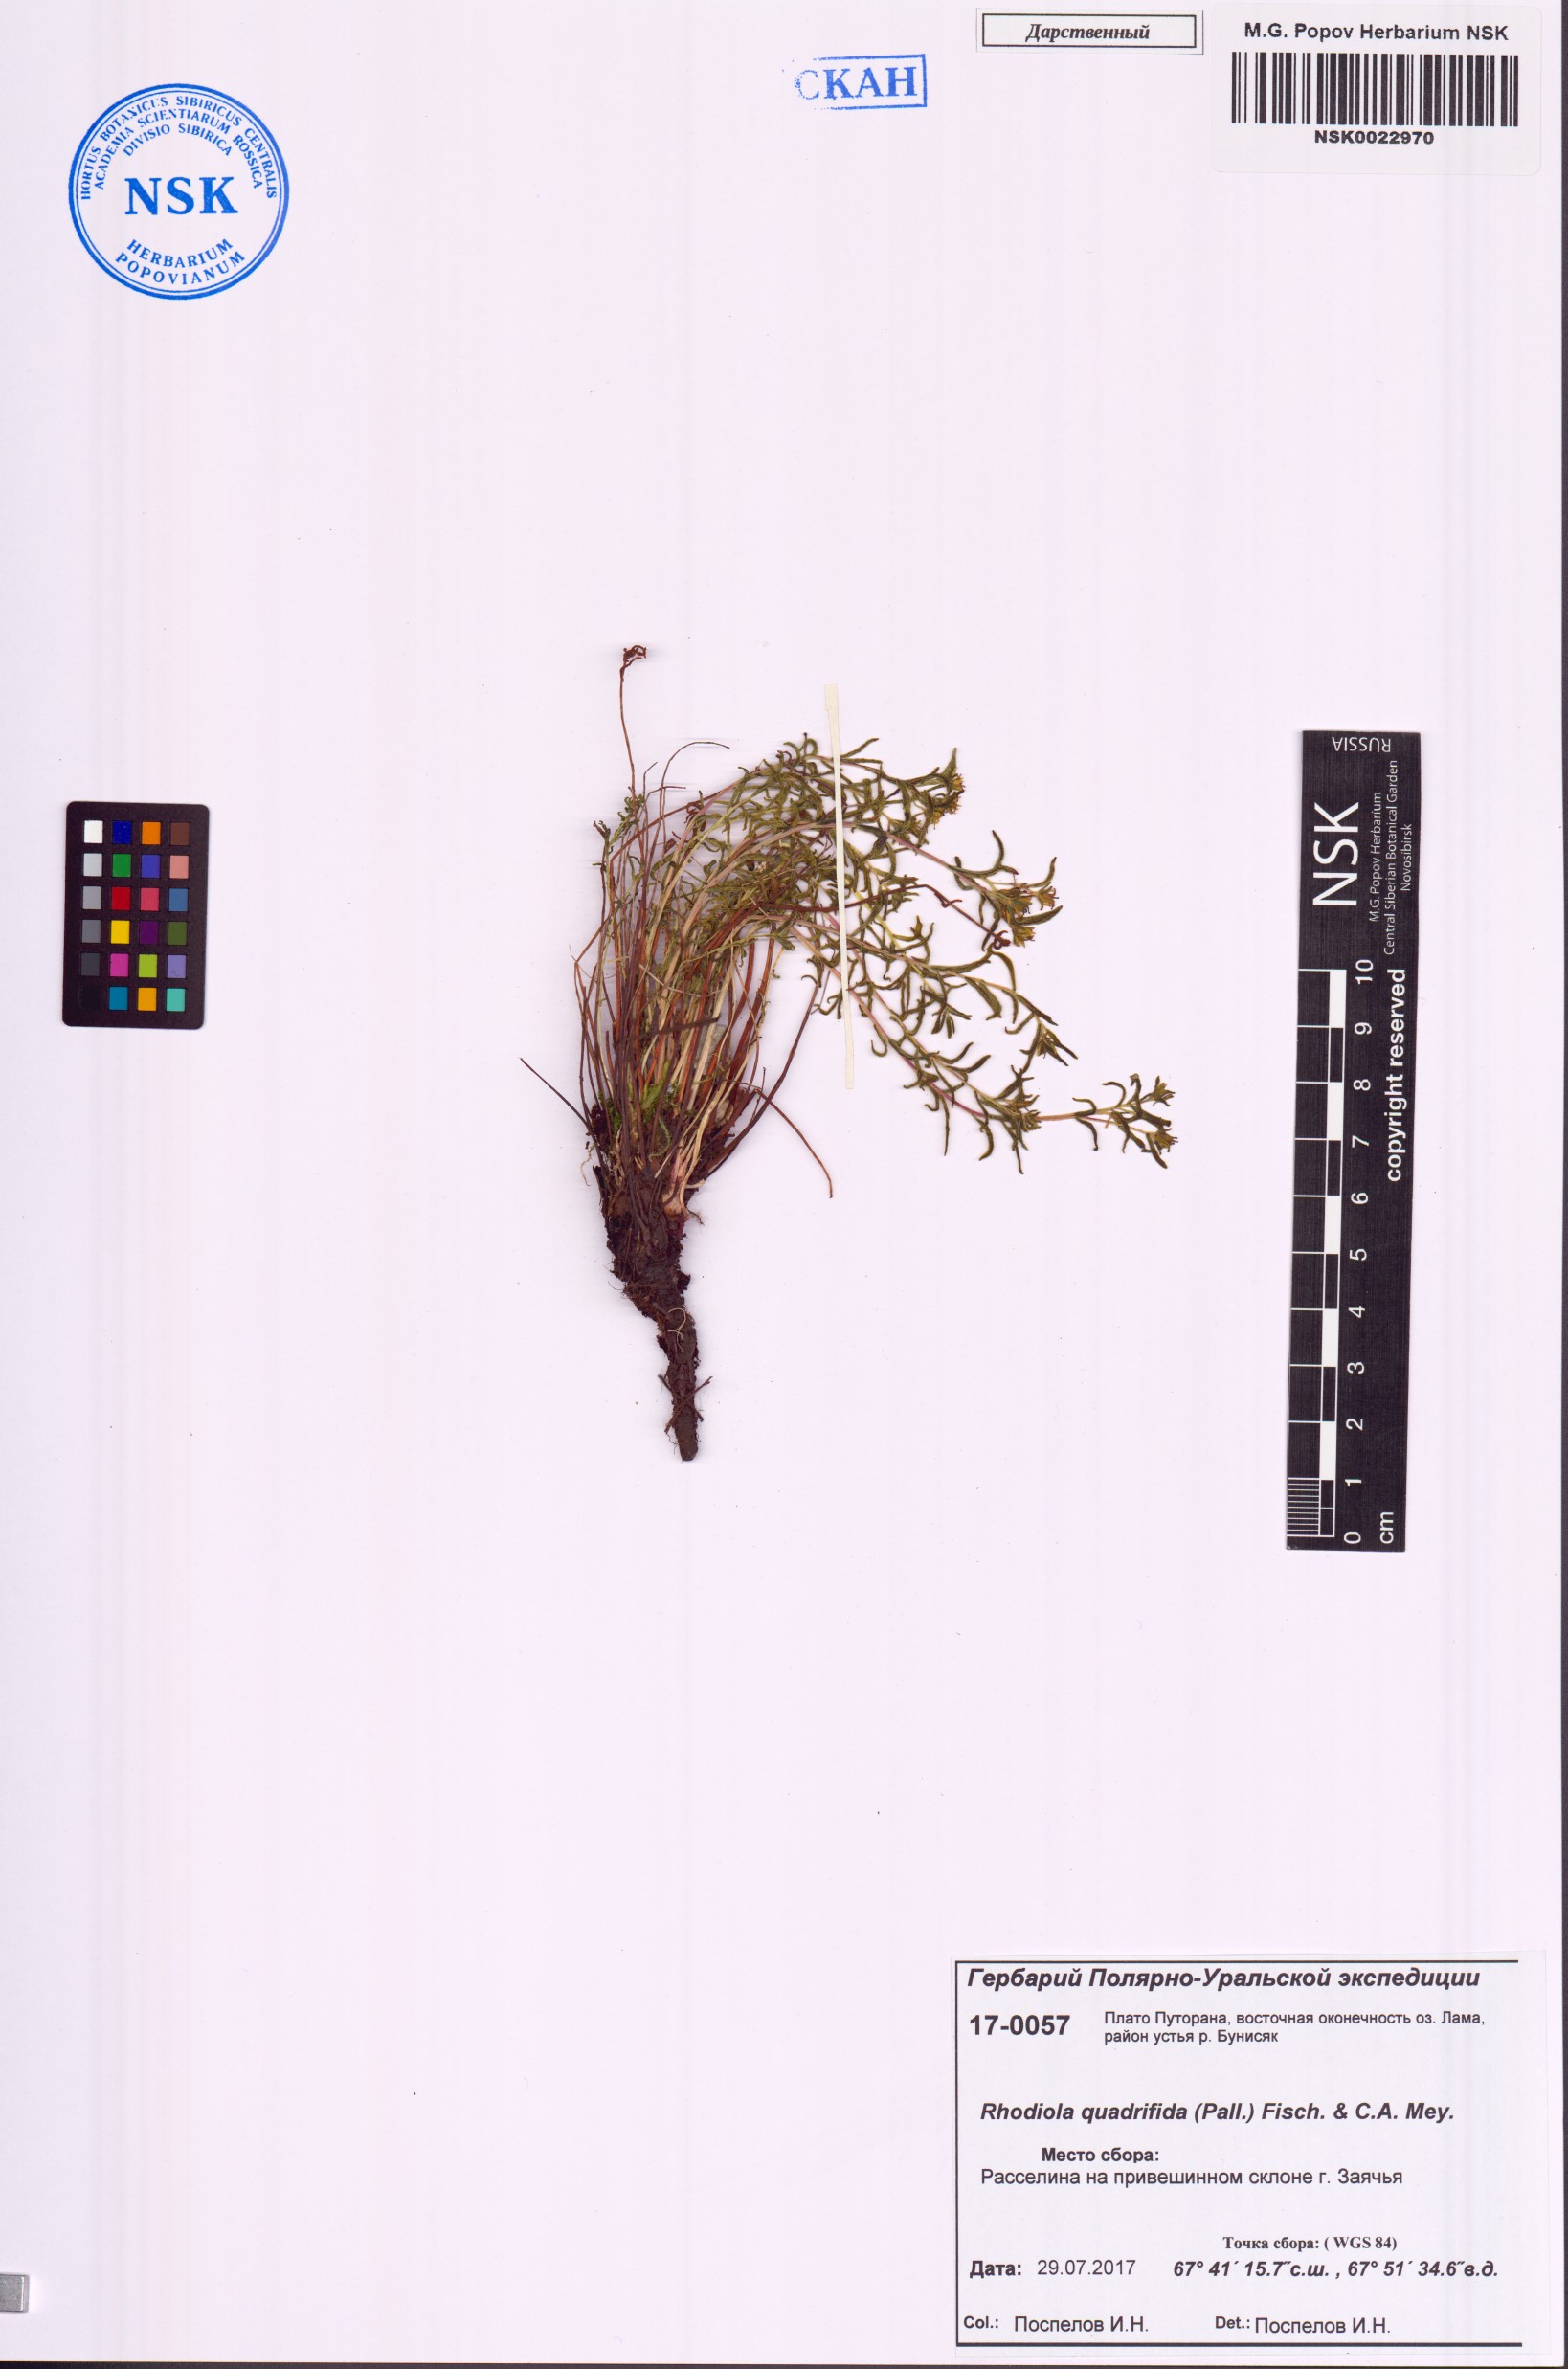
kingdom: Plantae
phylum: Tracheophyta
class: Magnoliopsida
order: Saxifragales
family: Crassulaceae
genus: Rhodiola
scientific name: Rhodiola quadrifida
